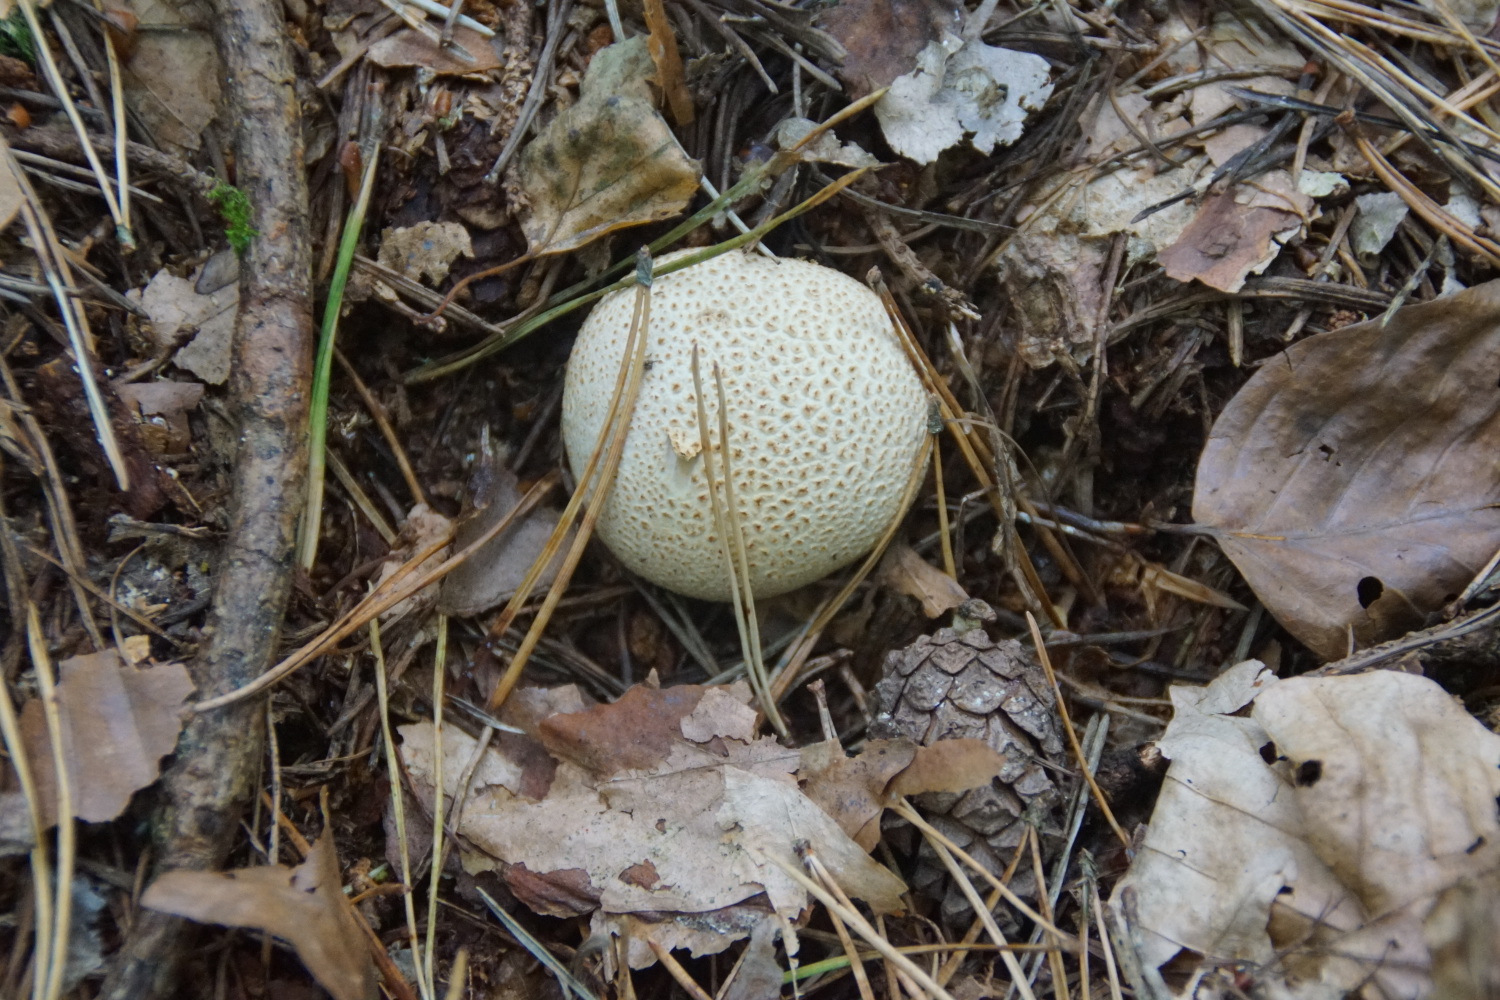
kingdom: Fungi
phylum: Basidiomycota
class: Agaricomycetes
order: Boletales
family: Sclerodermataceae
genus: Scleroderma
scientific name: Scleroderma citrinum
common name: almindelig bruskbold
